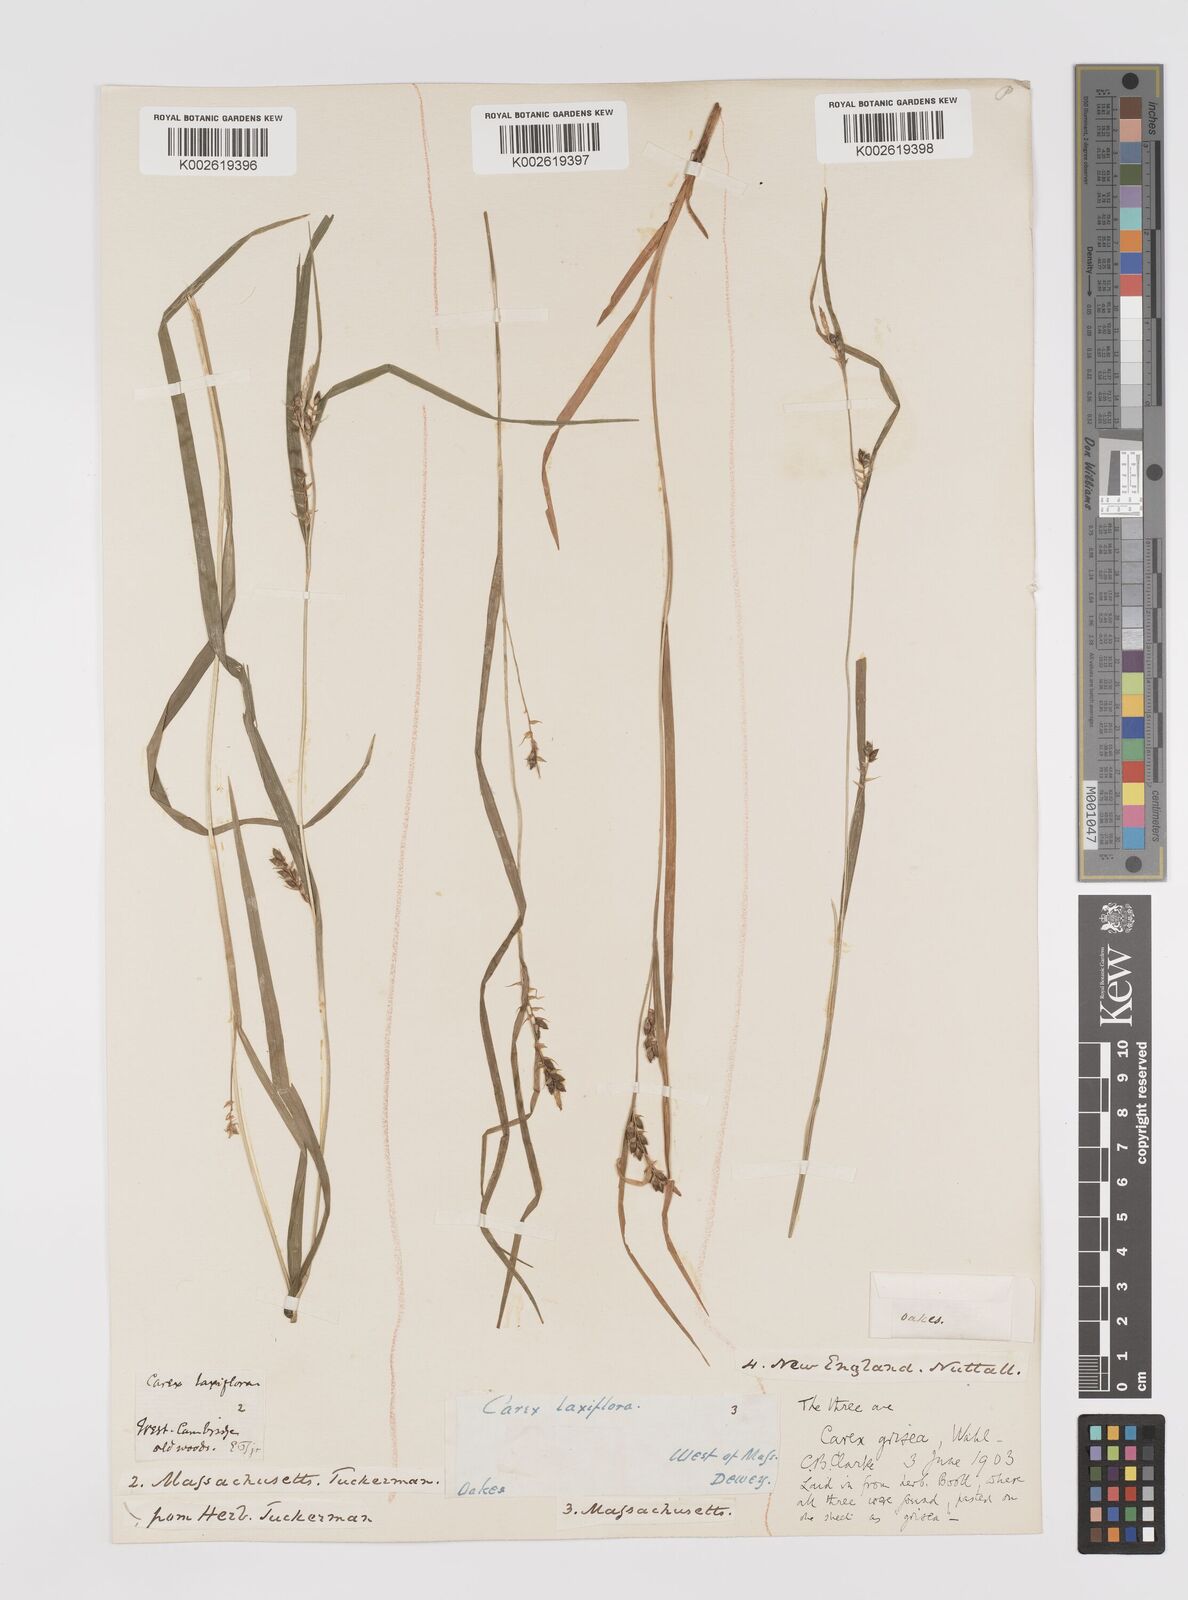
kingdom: Plantae
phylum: Tracheophyta
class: Liliopsida
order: Poales
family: Cyperaceae
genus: Carex
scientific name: Carex grisea
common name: Eastern narrow-leaved sedge
